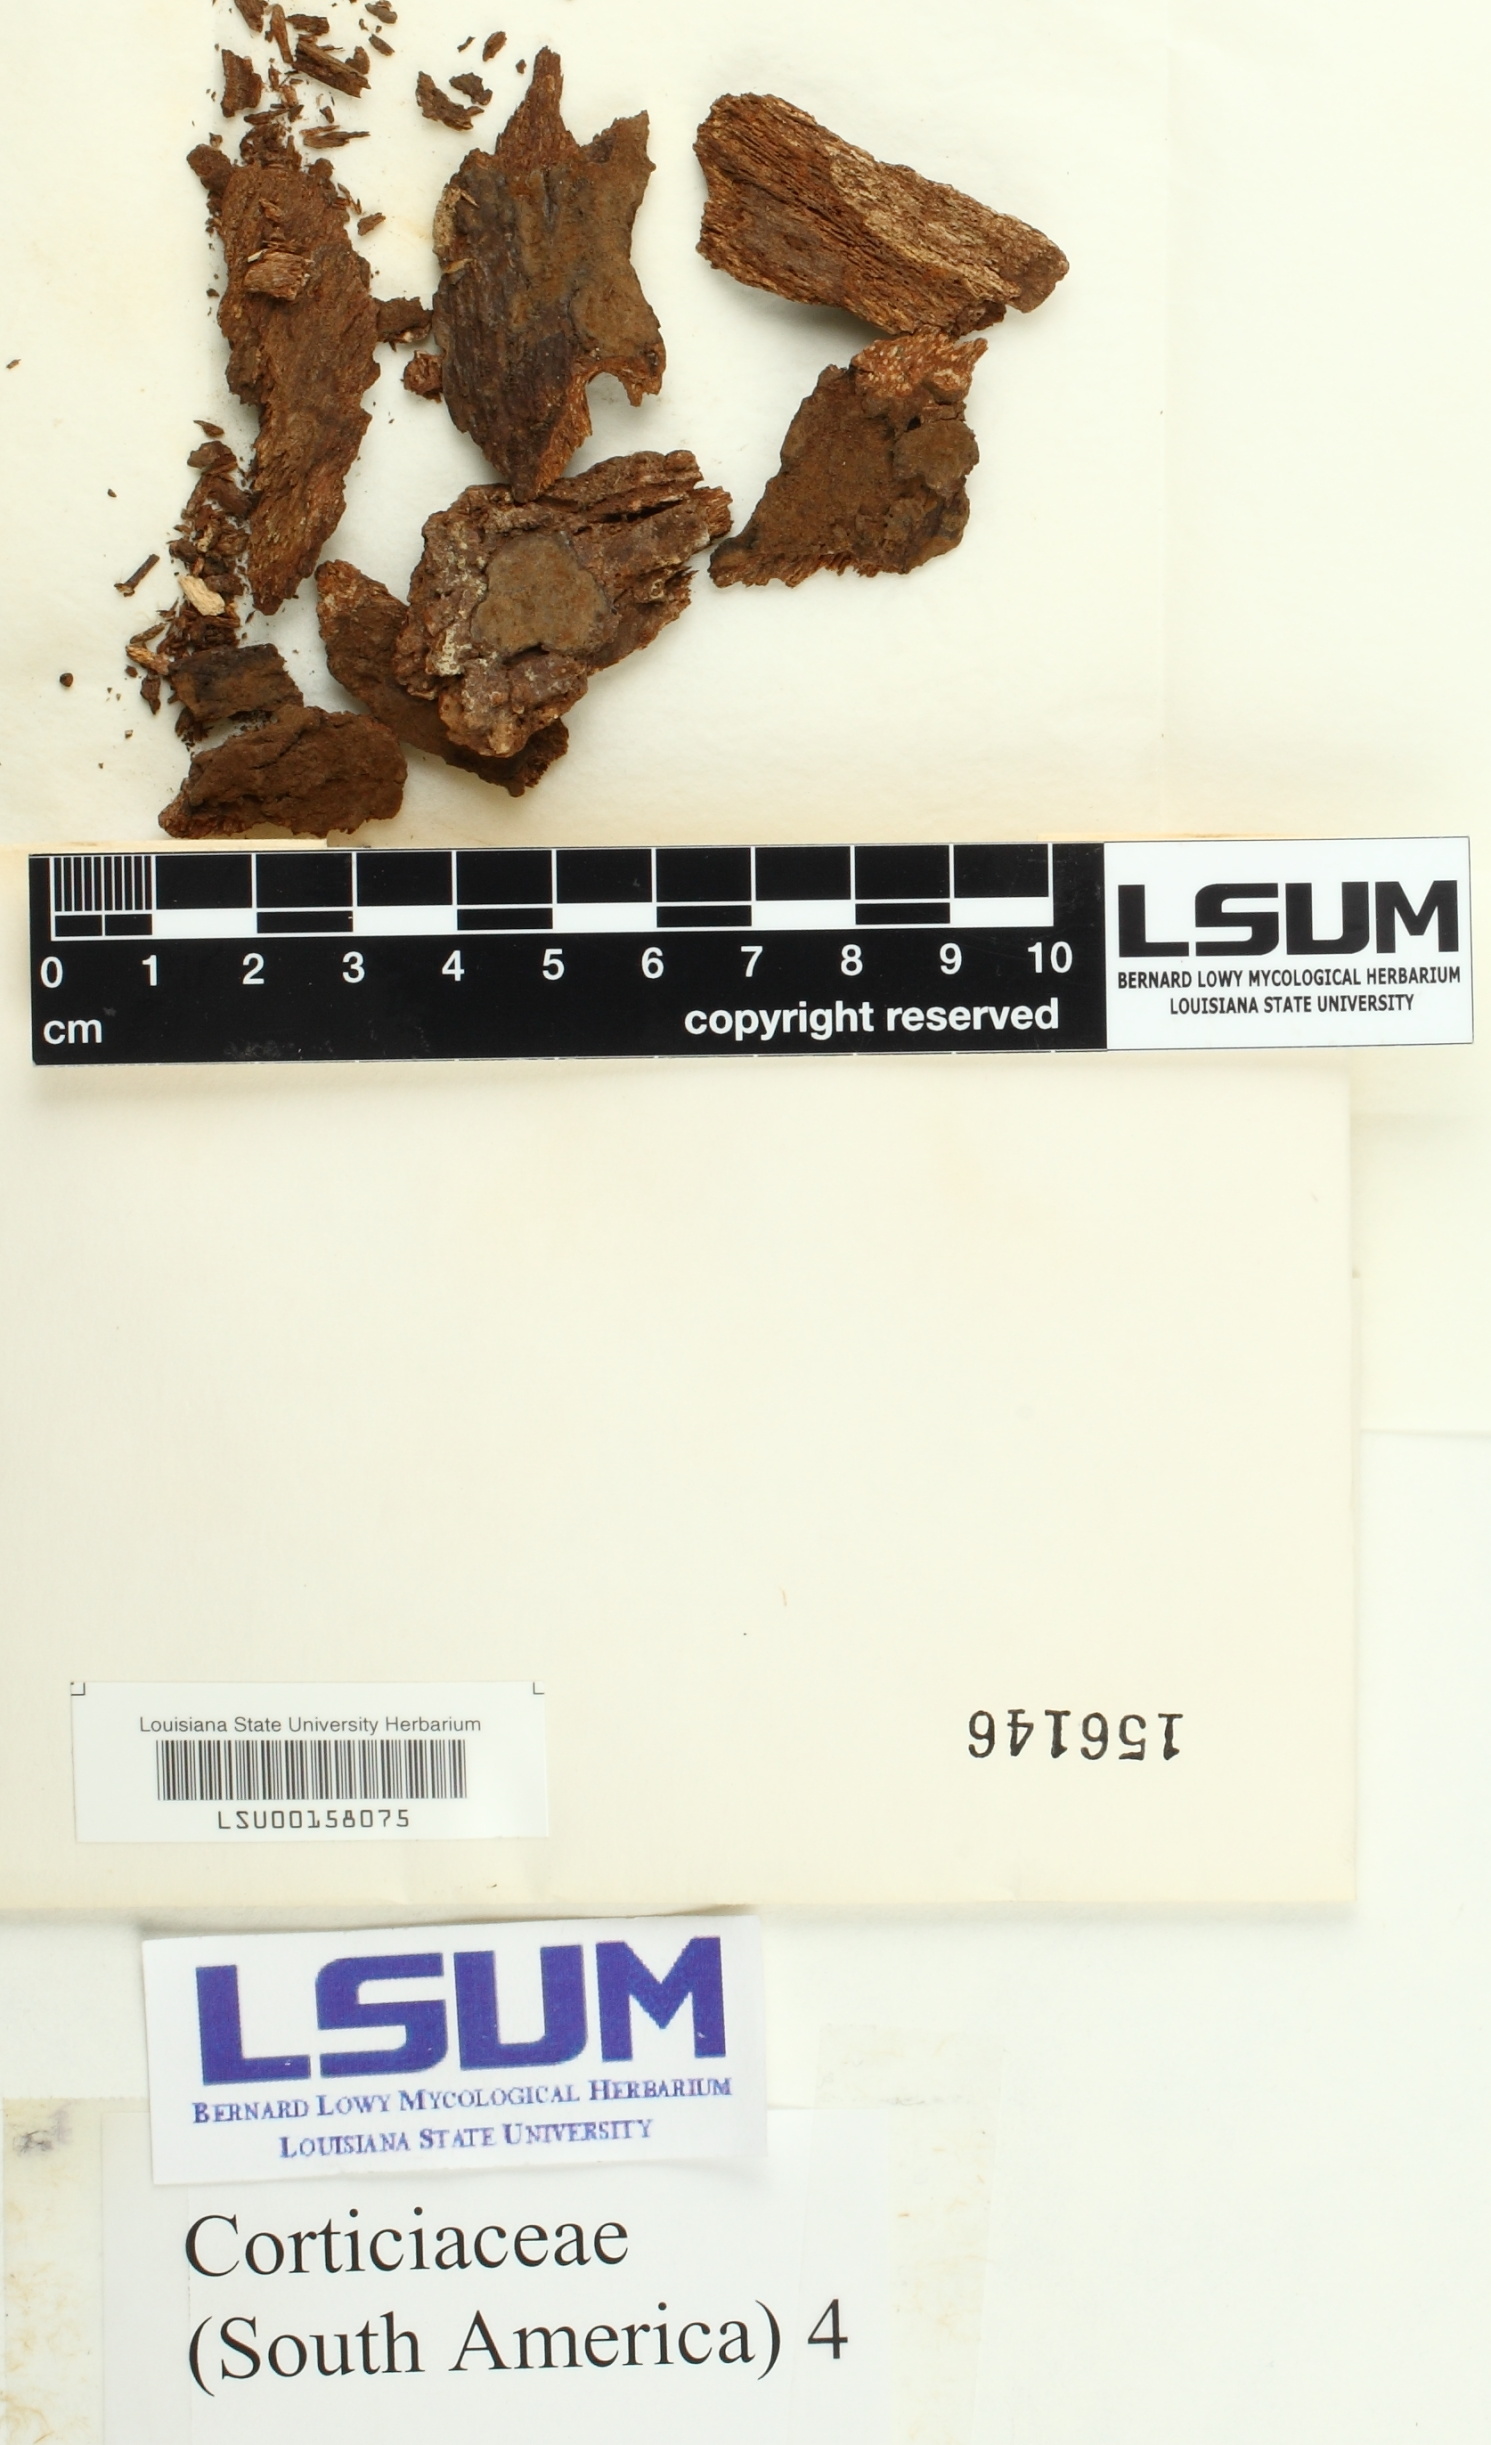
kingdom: Fungi
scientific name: Fungi
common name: Fungi
